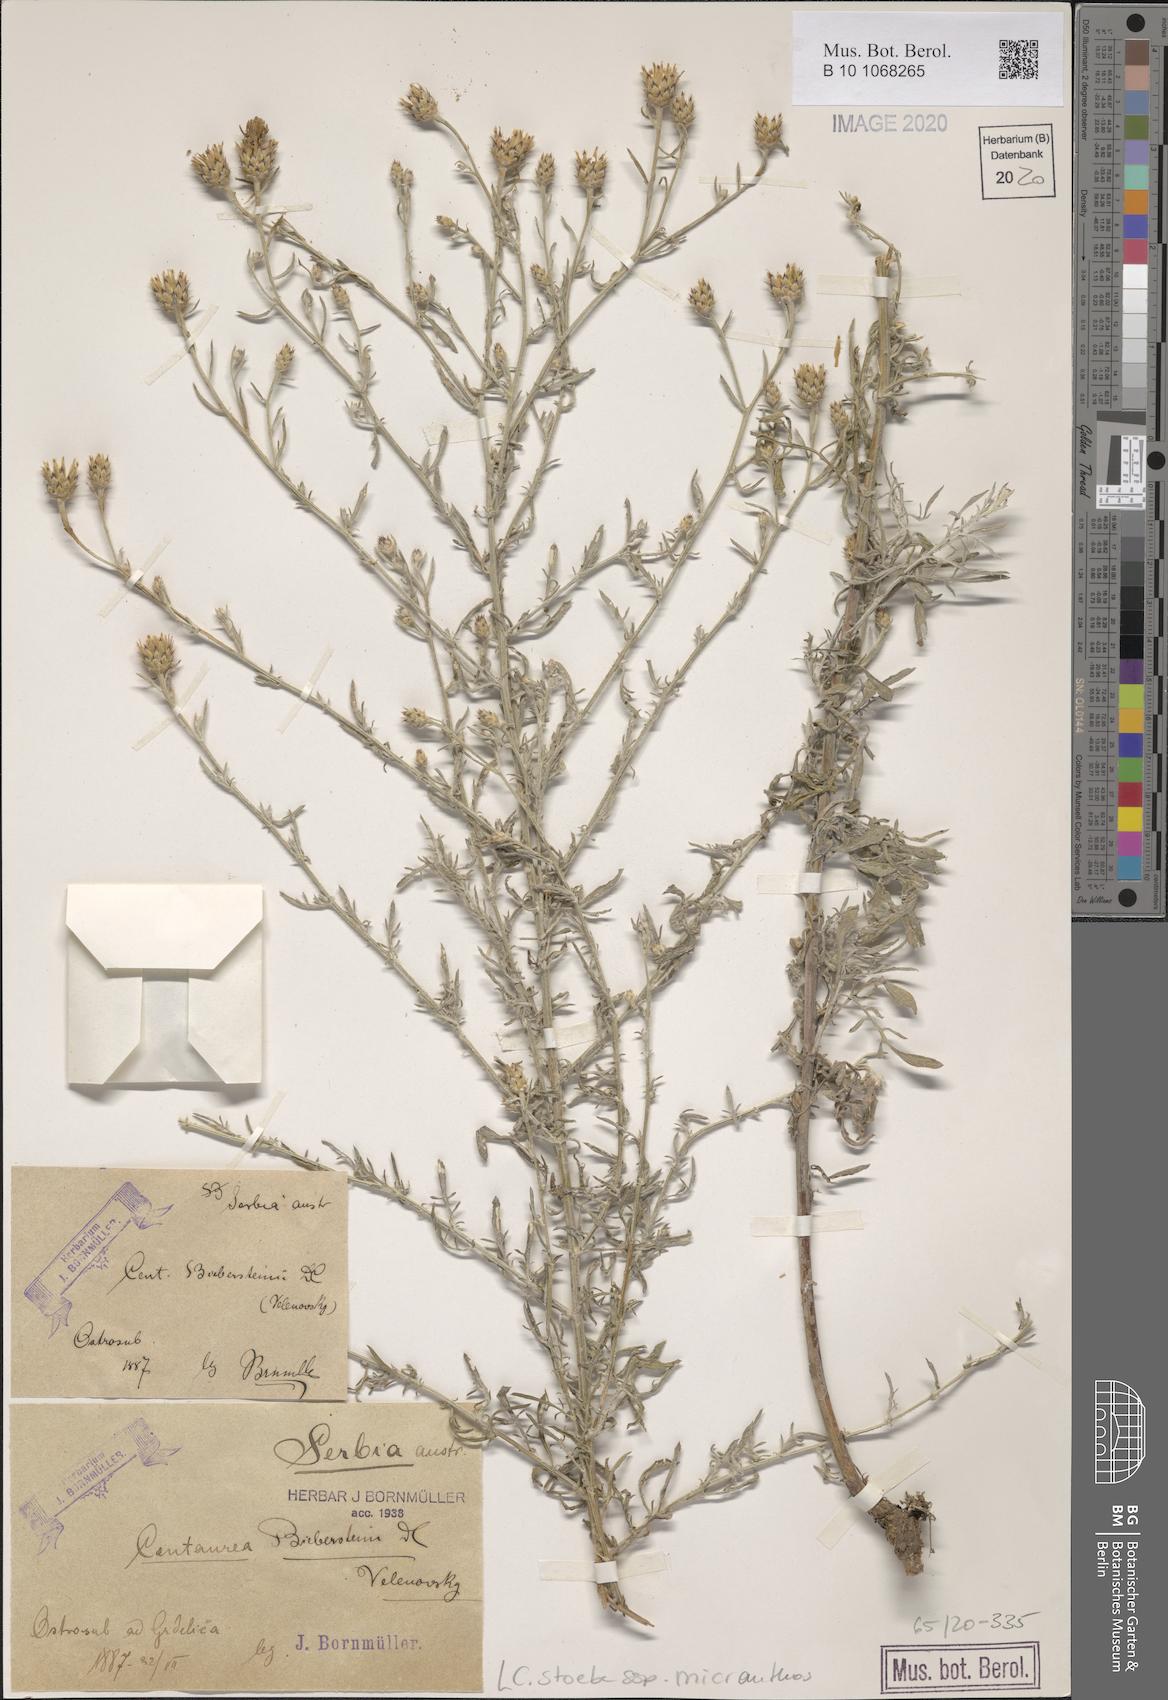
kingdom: Plantae
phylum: Tracheophyta
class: Magnoliopsida
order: Asterales
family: Asteraceae
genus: Centaurea
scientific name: Centaurea australis
